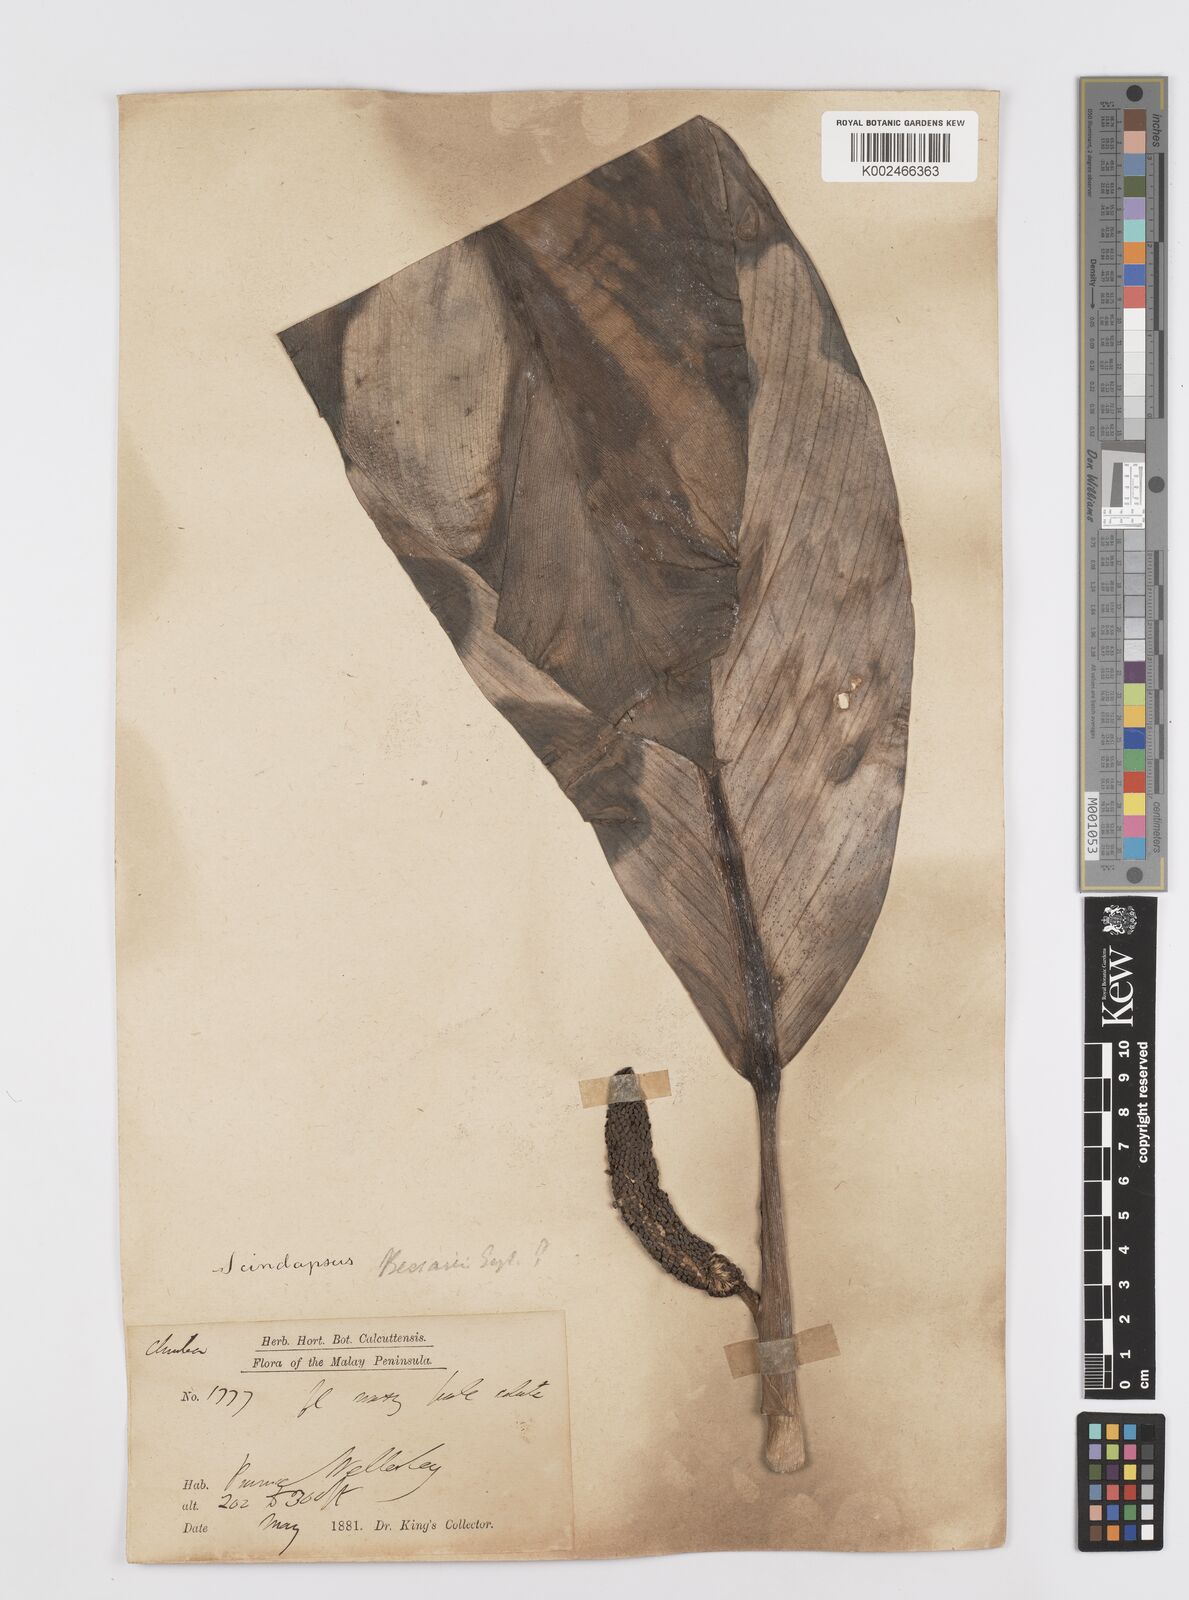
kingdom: Plantae
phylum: Tracheophyta
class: Liliopsida
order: Alismatales
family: Araceae
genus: Scindapsus
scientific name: Scindapsus beccarii
